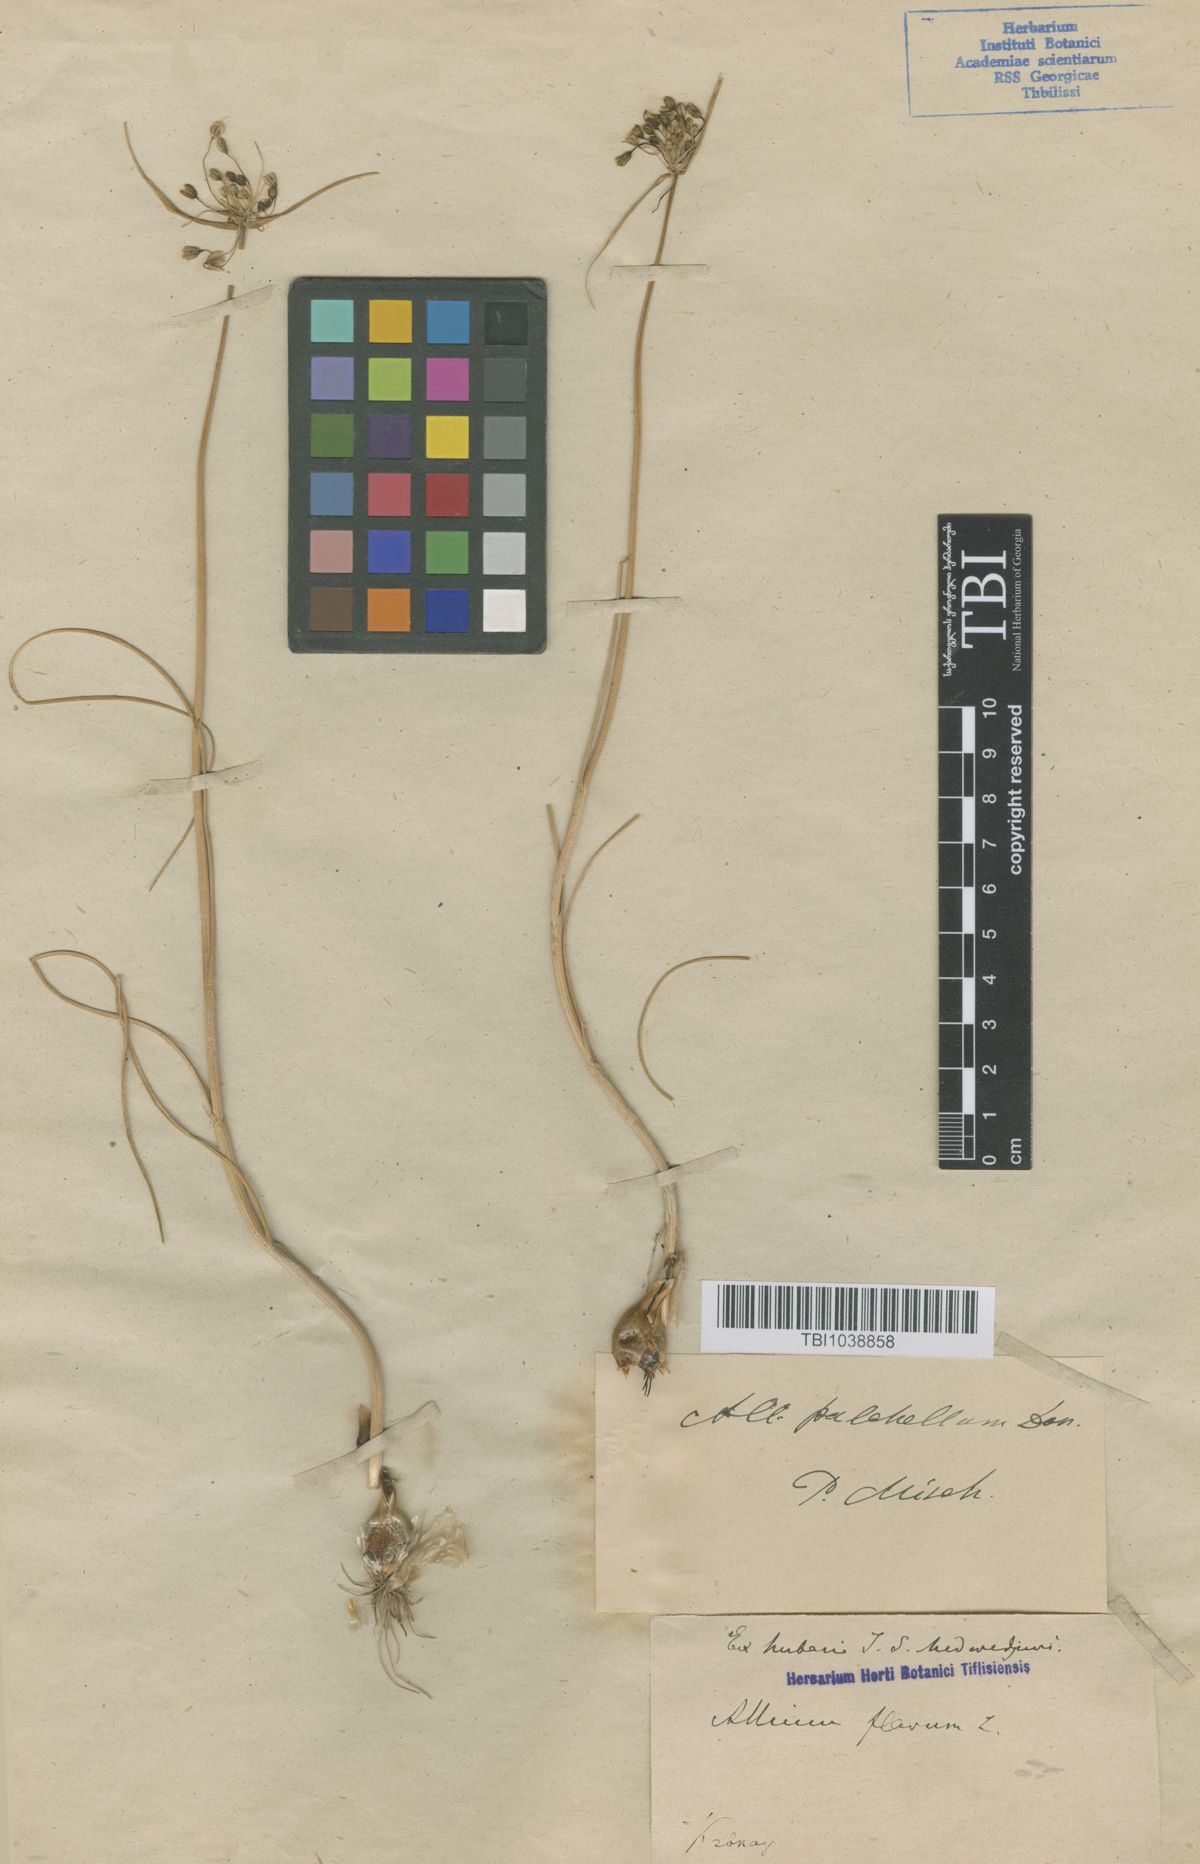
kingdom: Plantae
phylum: Tracheophyta
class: Liliopsida
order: Asparagales
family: Amaryllidaceae
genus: Allium
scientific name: Allium flavum
